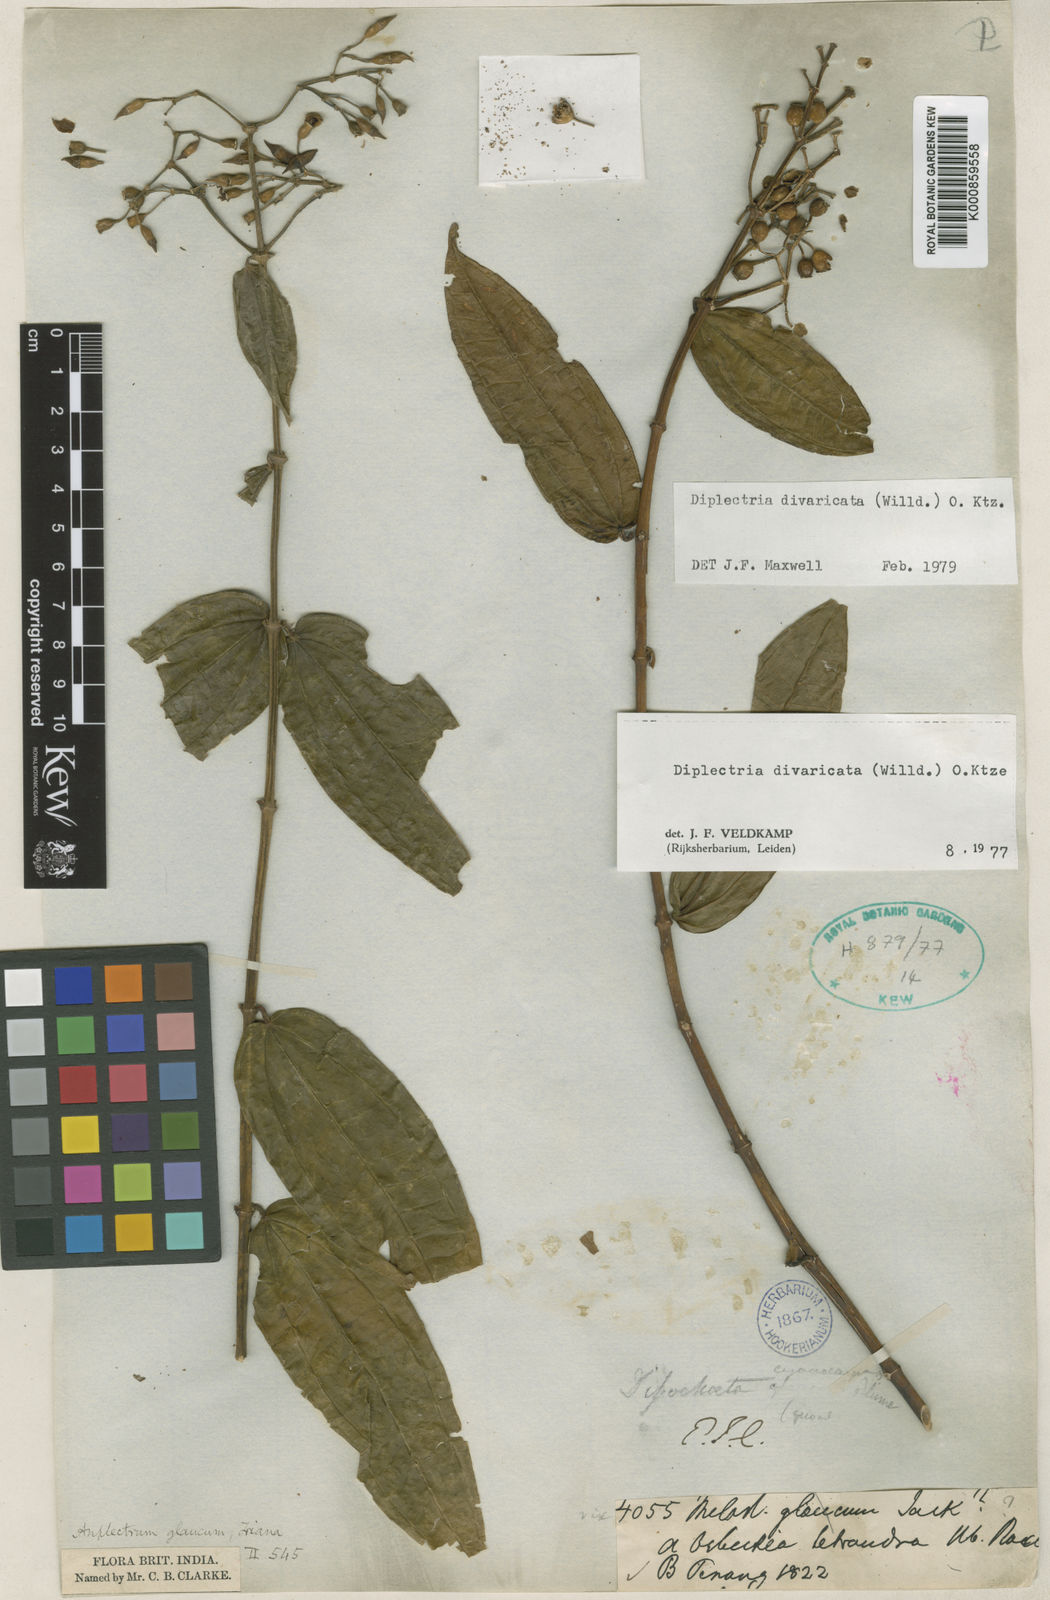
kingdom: Plantae
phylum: Tracheophyta
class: Magnoliopsida
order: Myrtales
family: Melastomataceae
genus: Diplectria
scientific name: Diplectria divaricata
